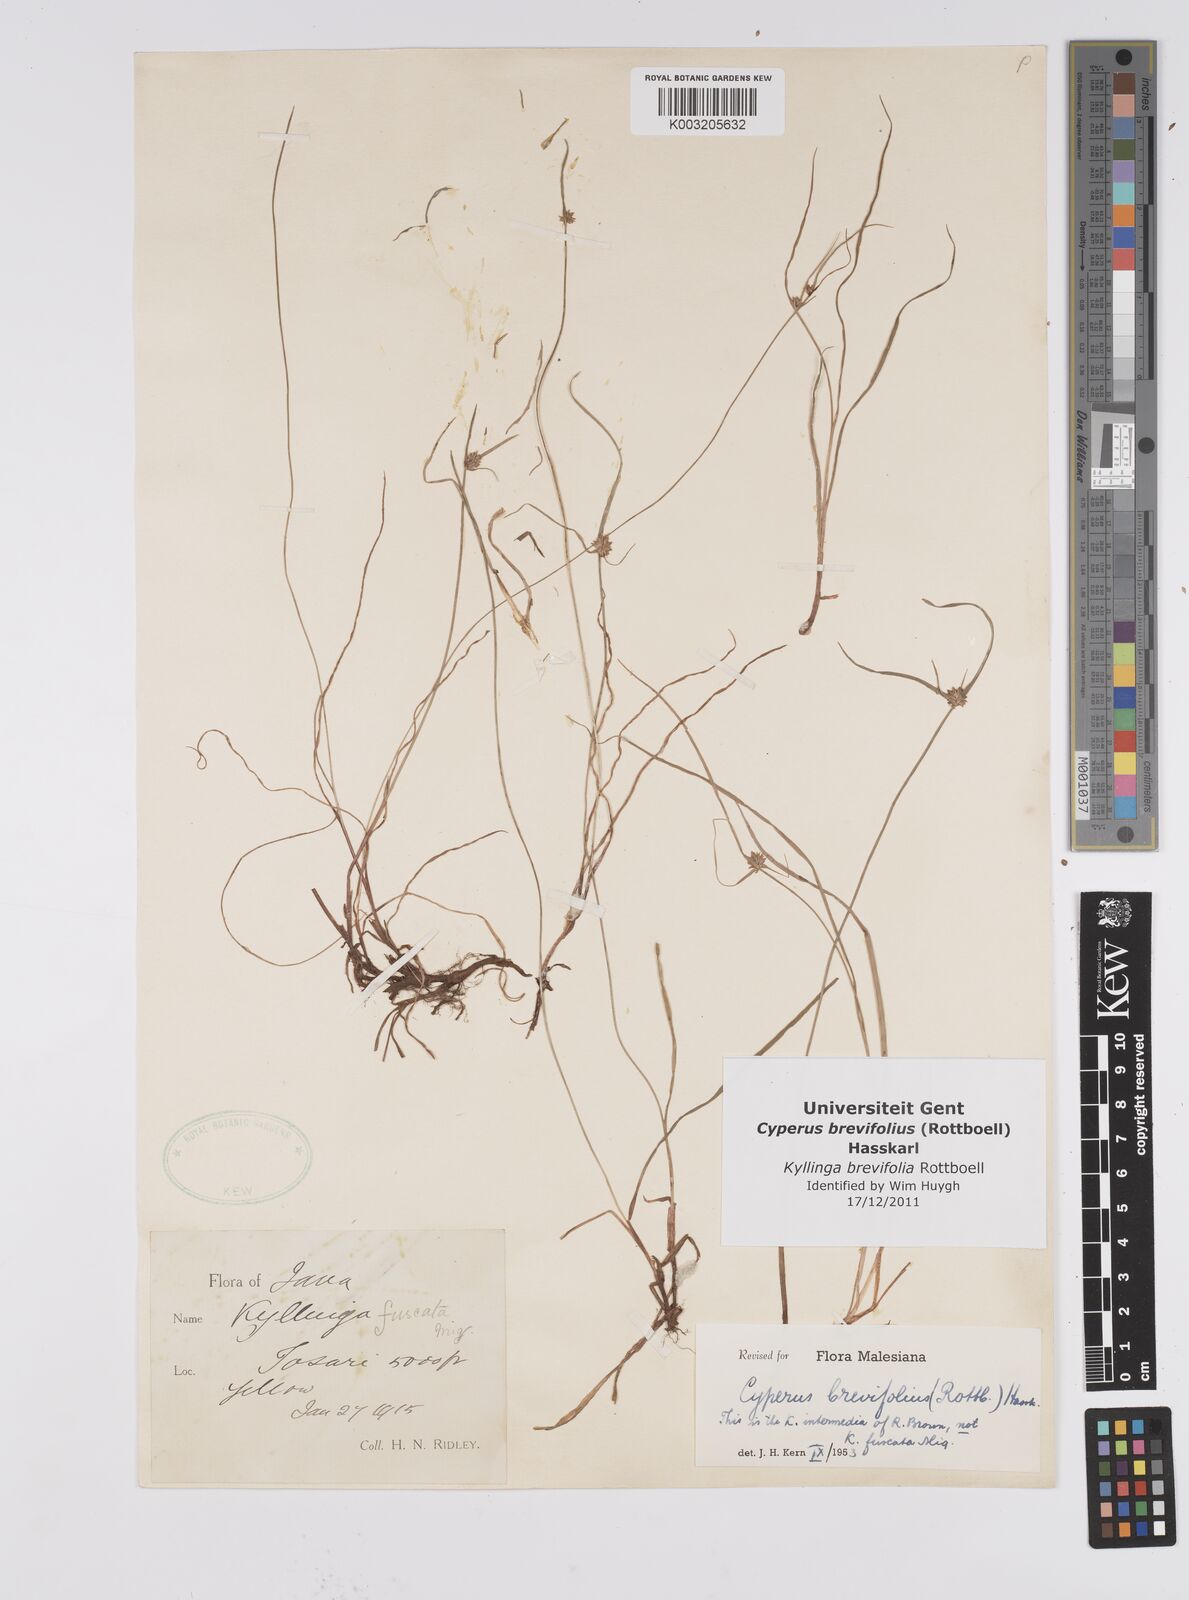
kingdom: Plantae
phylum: Tracheophyta
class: Liliopsida
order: Poales
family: Cyperaceae
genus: Cyperus
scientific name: Cyperus brevifolius
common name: Globe kyllinga
